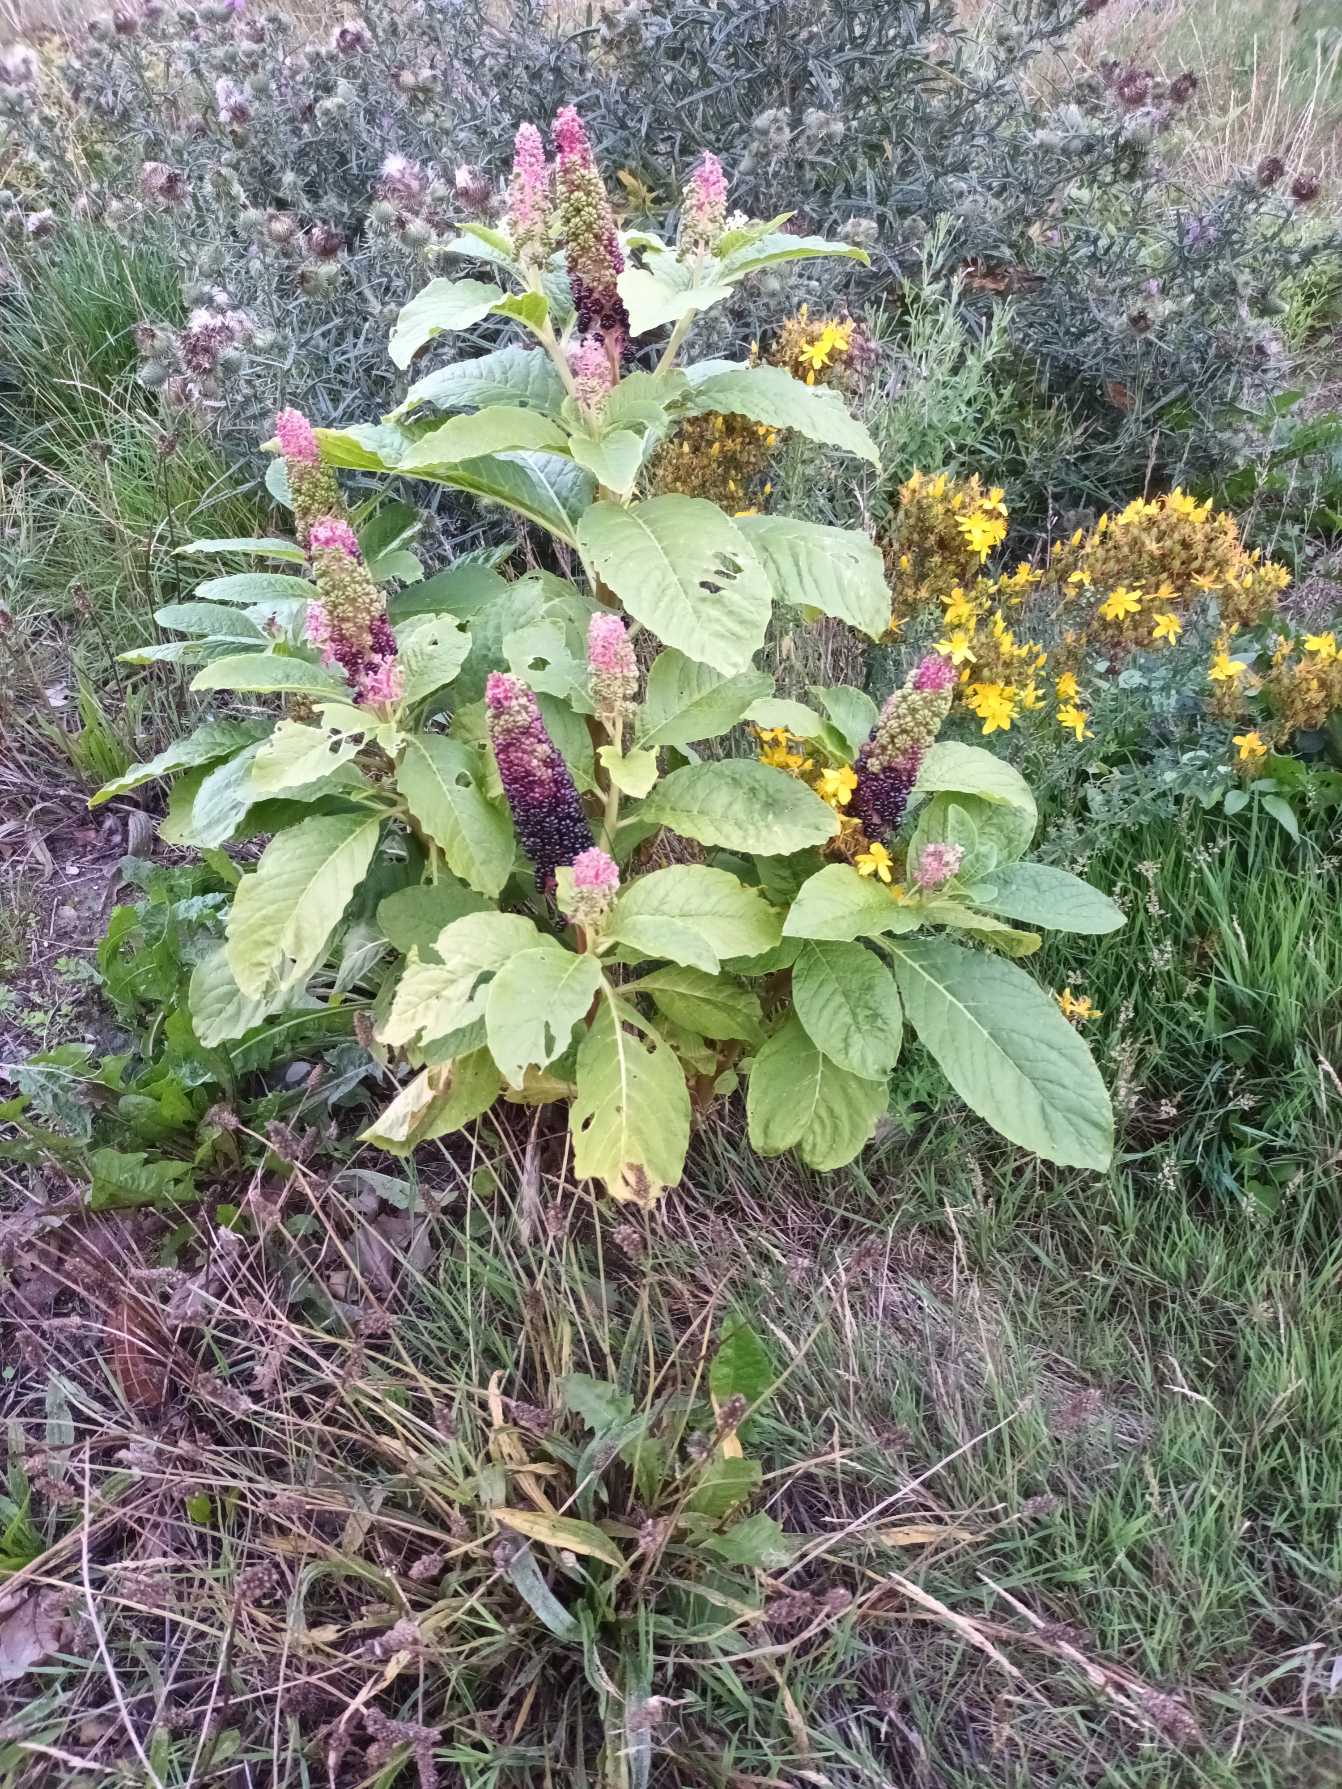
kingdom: Plantae
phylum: Tracheophyta
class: Magnoliopsida
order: Caryophyllales
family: Phytolaccaceae
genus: Phytolacca
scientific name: Phytolacca acinosa
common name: Asiatisk kermesbær
